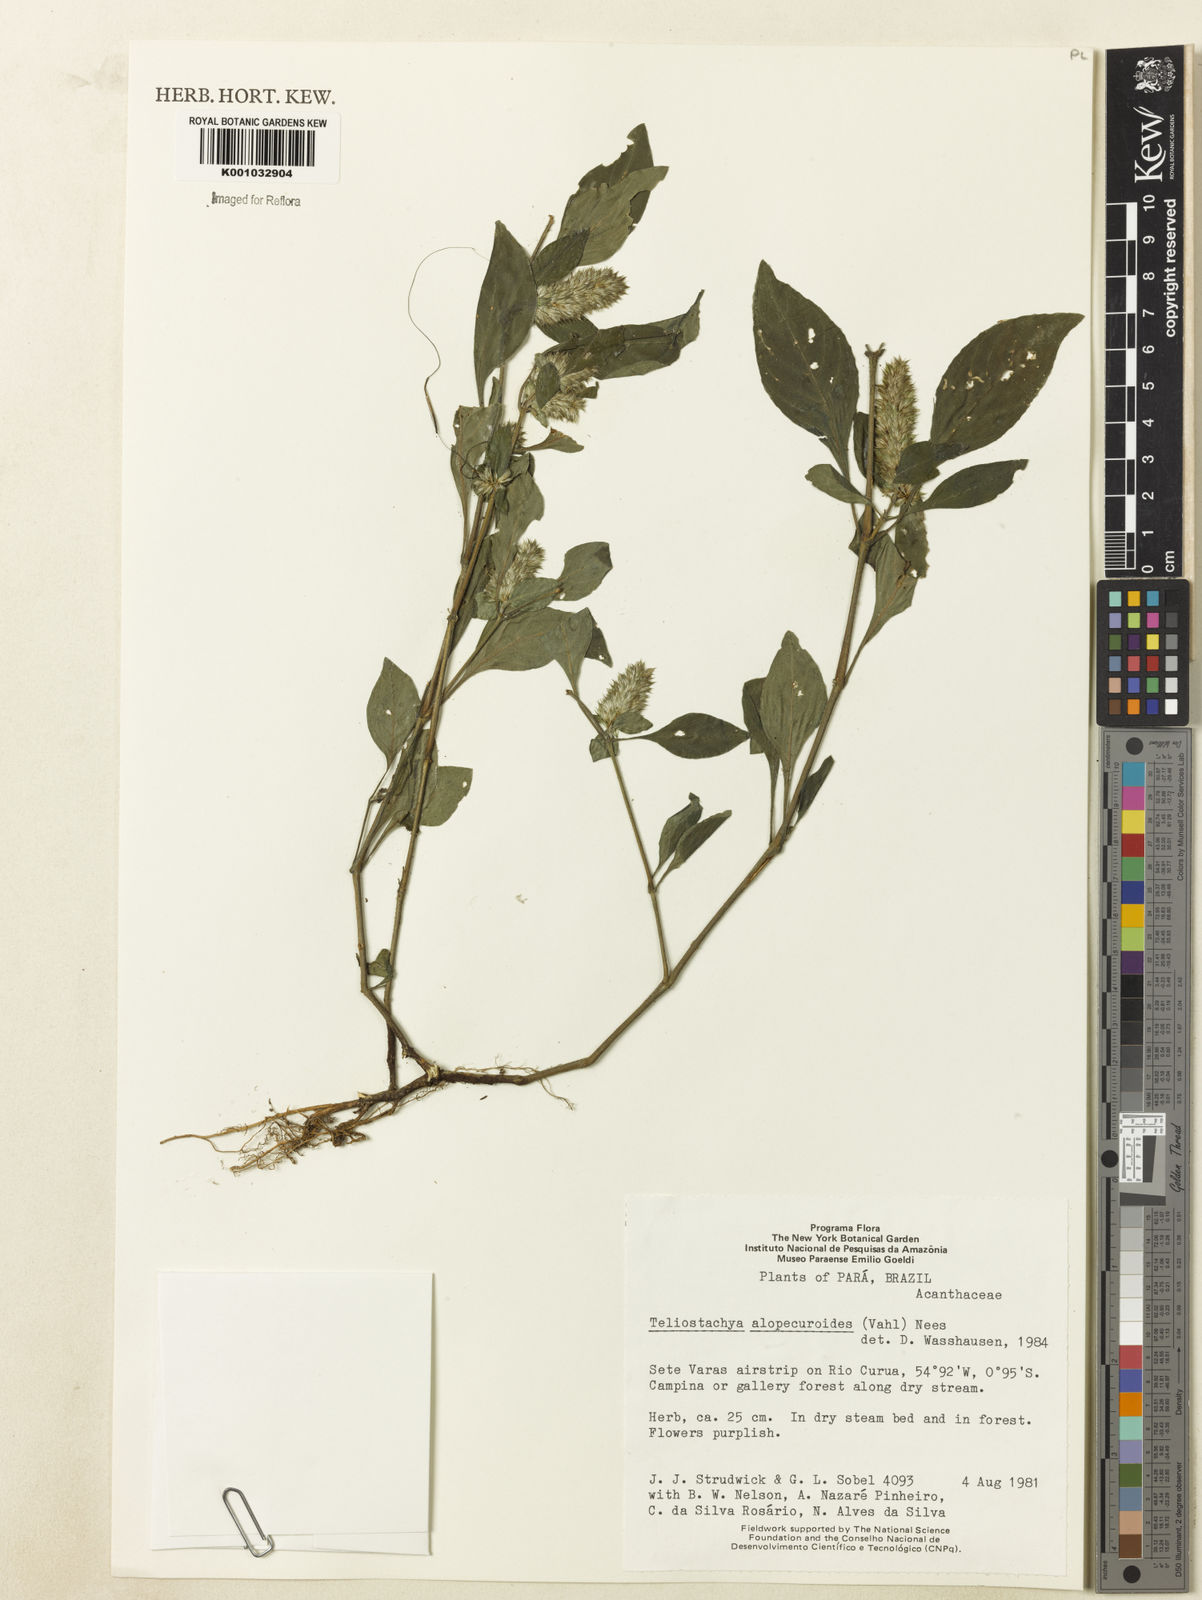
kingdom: Plantae
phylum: Tracheophyta
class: Magnoliopsida
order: Lamiales
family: Acanthaceae
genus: Lepidagathis
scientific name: Lepidagathis alopecuroidea
